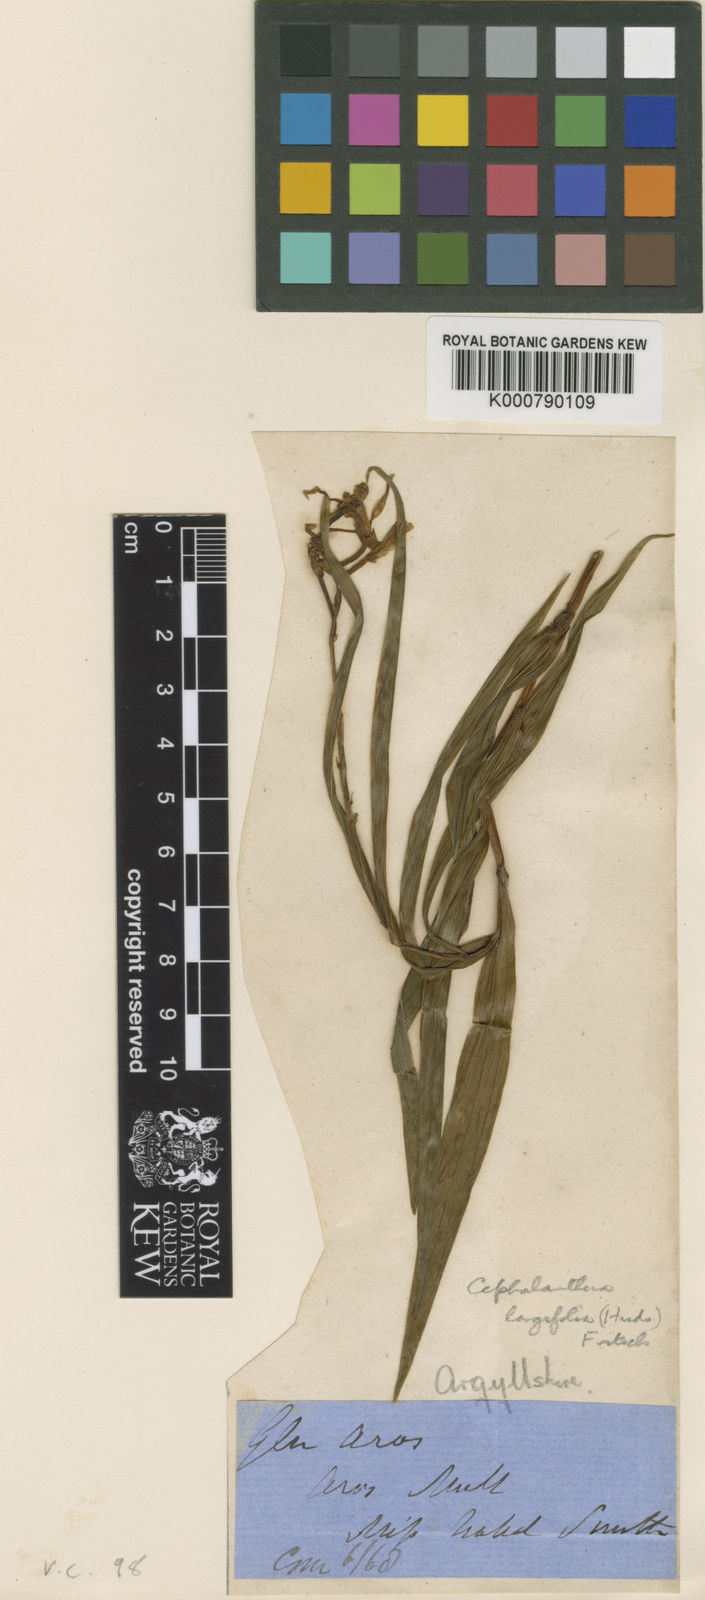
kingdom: Plantae
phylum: Tracheophyta
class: Liliopsida
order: Asparagales
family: Orchidaceae
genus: Cephalanthera
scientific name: Cephalanthera longifolia
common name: Narrow-leaved helleborine
